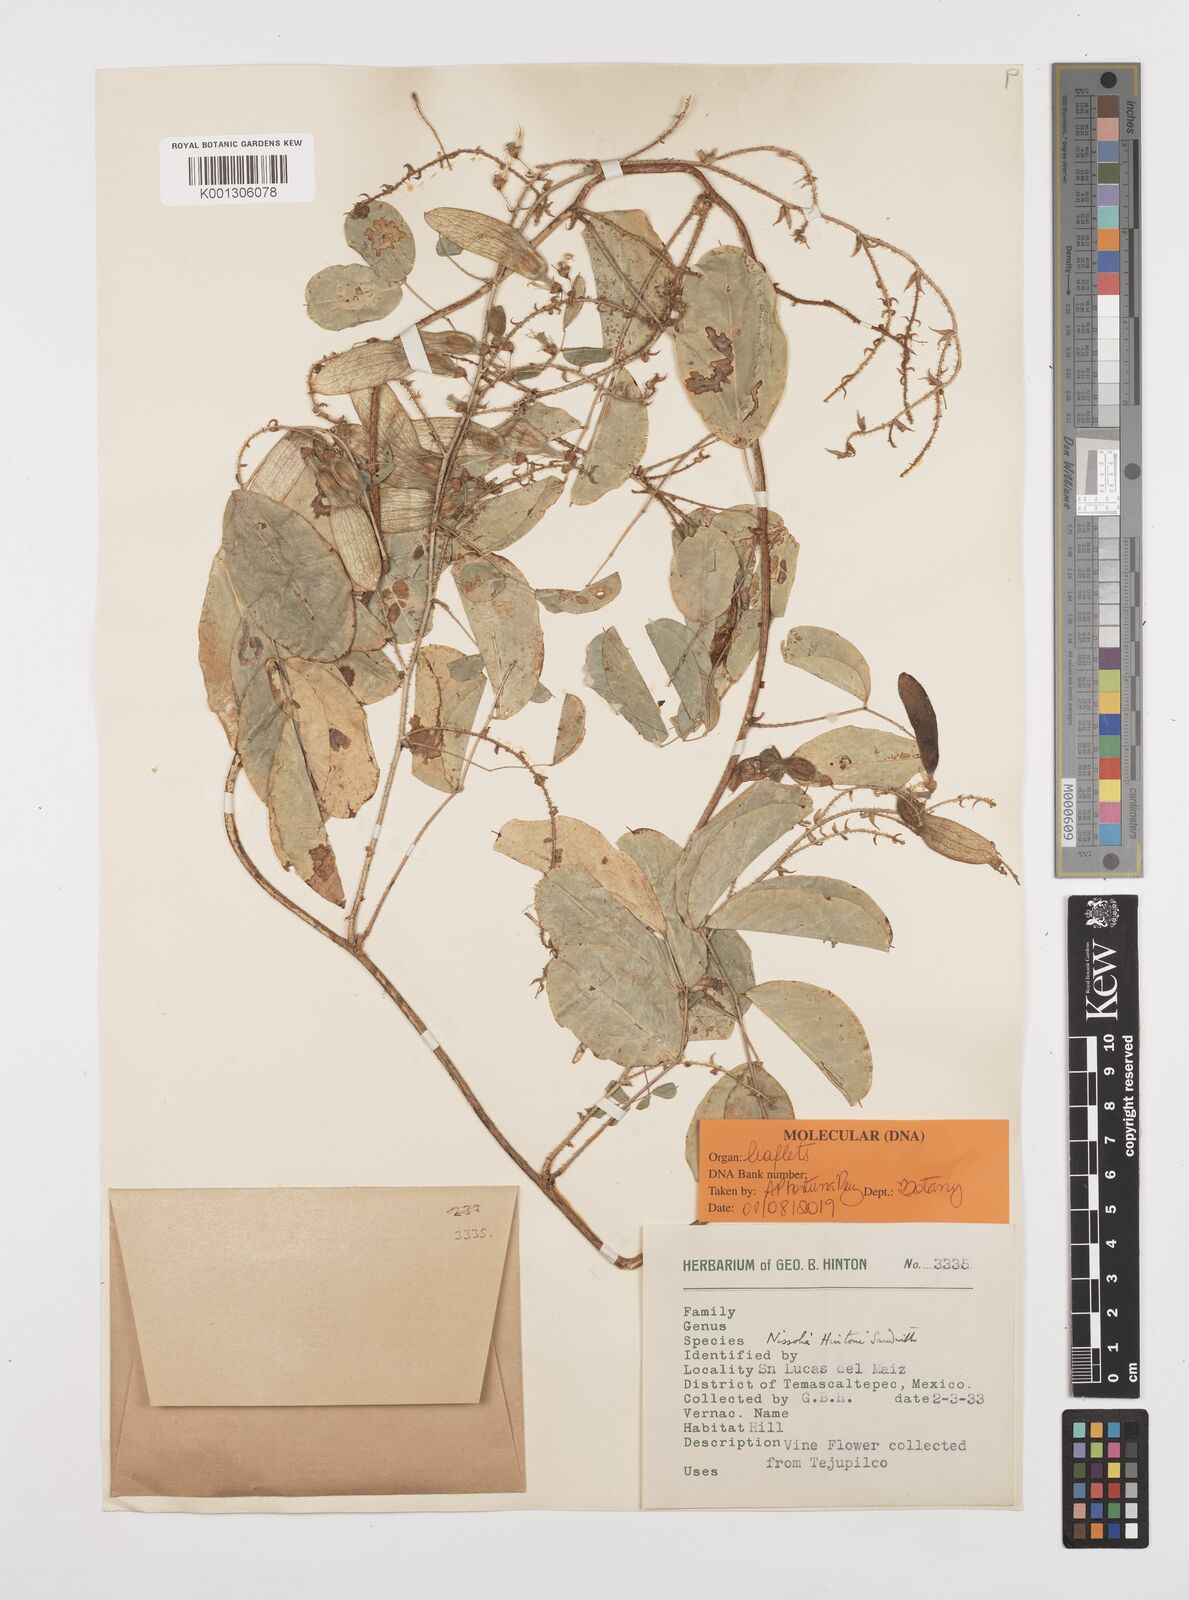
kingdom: Plantae
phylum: Tracheophyta
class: Magnoliopsida
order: Fabales
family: Fabaceae
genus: Nissolia
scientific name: Nissolia hintonii
